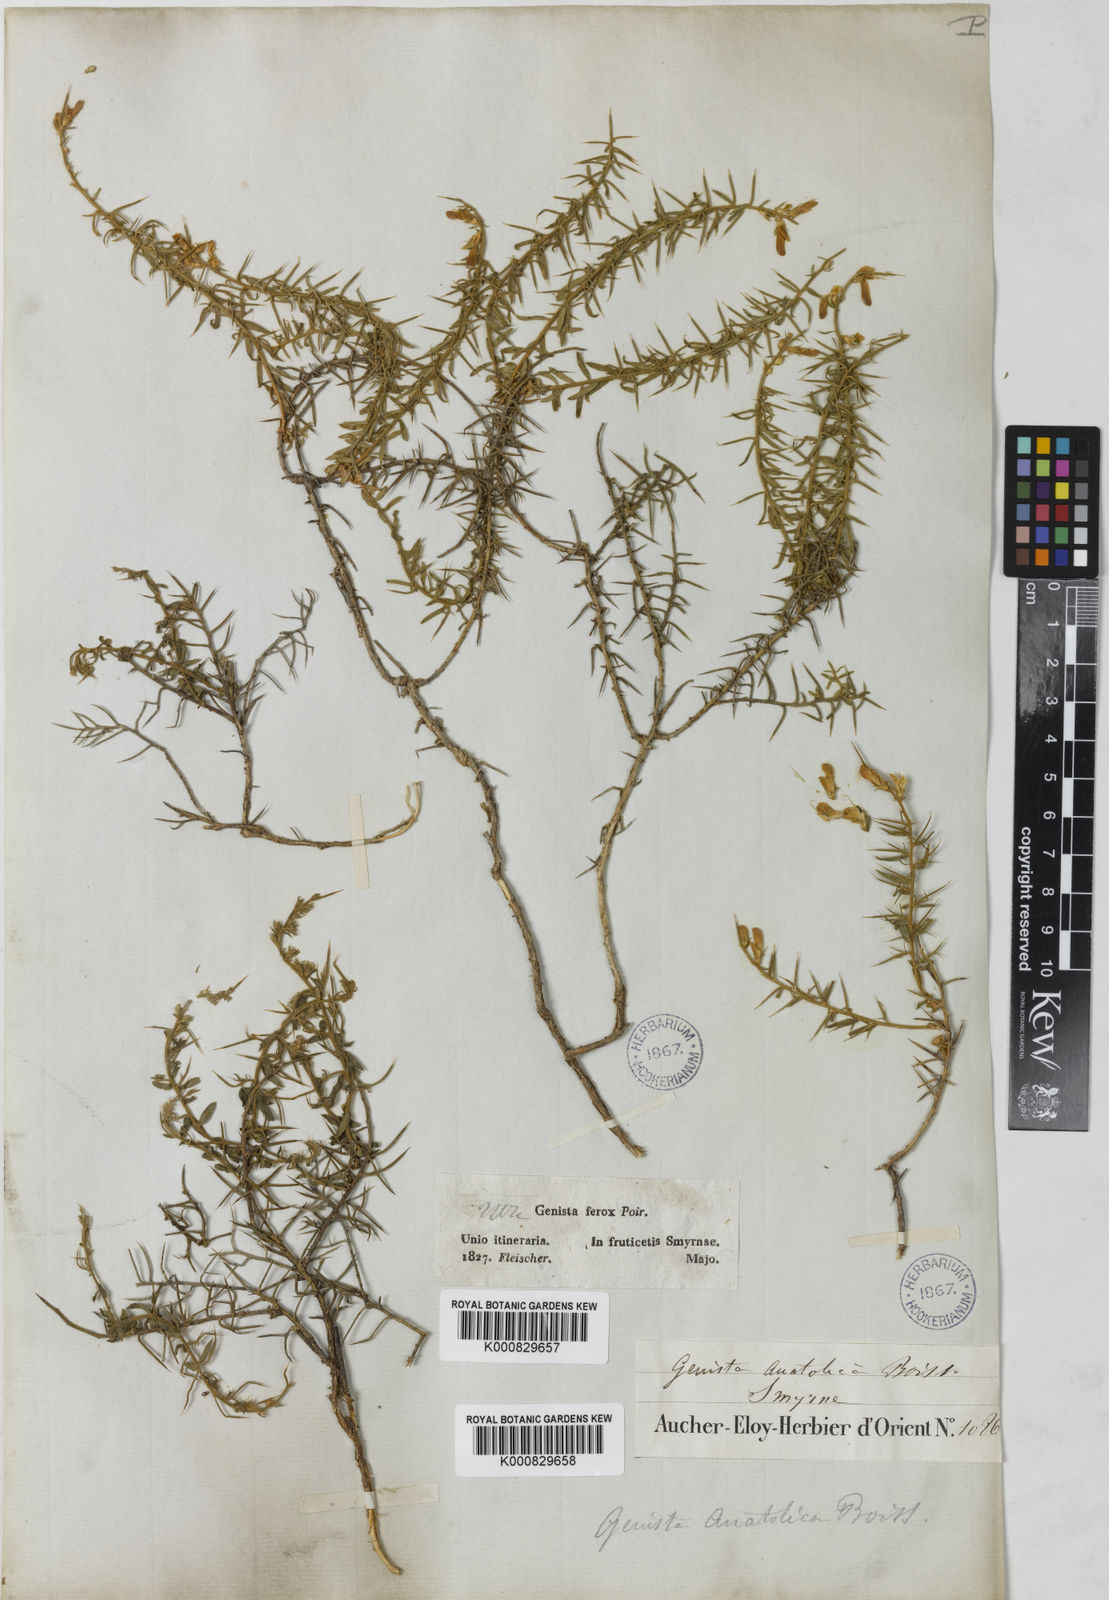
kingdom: Plantae
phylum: Tracheophyta
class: Magnoliopsida
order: Fabales
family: Fabaceae
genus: Genista
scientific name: Genista anatolica
